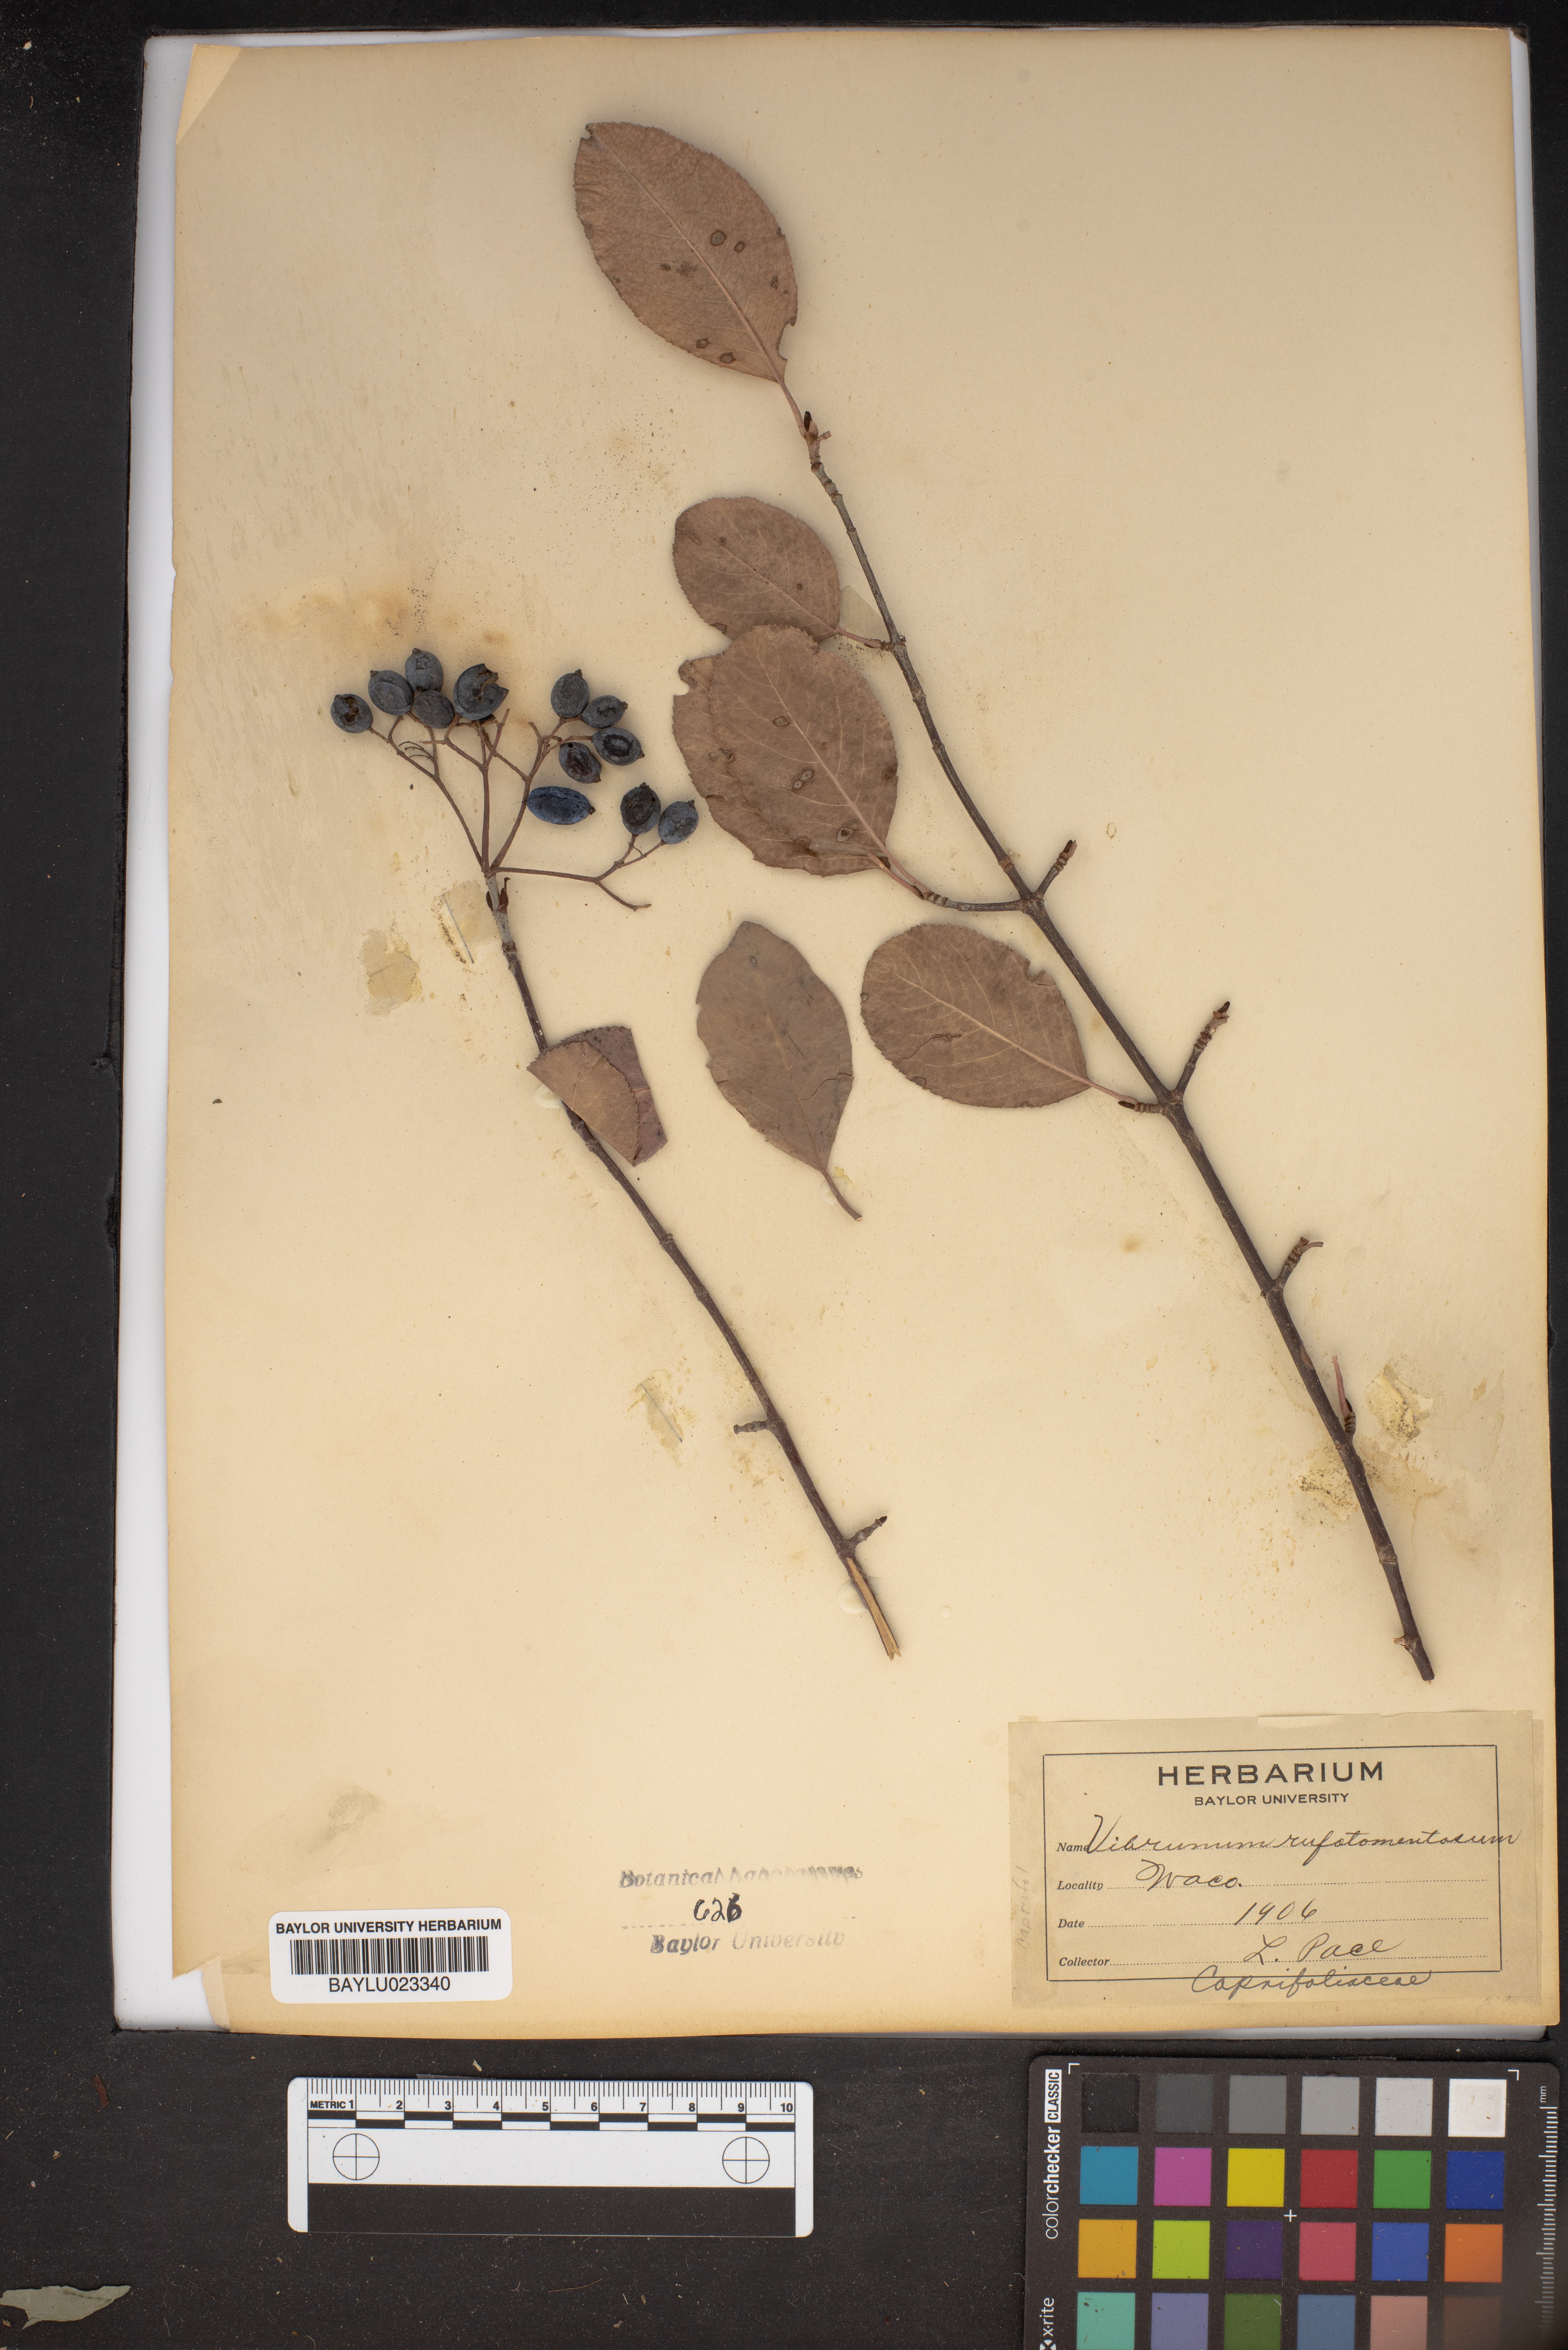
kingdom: Plantae
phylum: Tracheophyta
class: Magnoliopsida
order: Dipsacales
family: Viburnaceae
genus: Viburnum
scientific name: Viburnum rufidulum
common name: Blue haw
